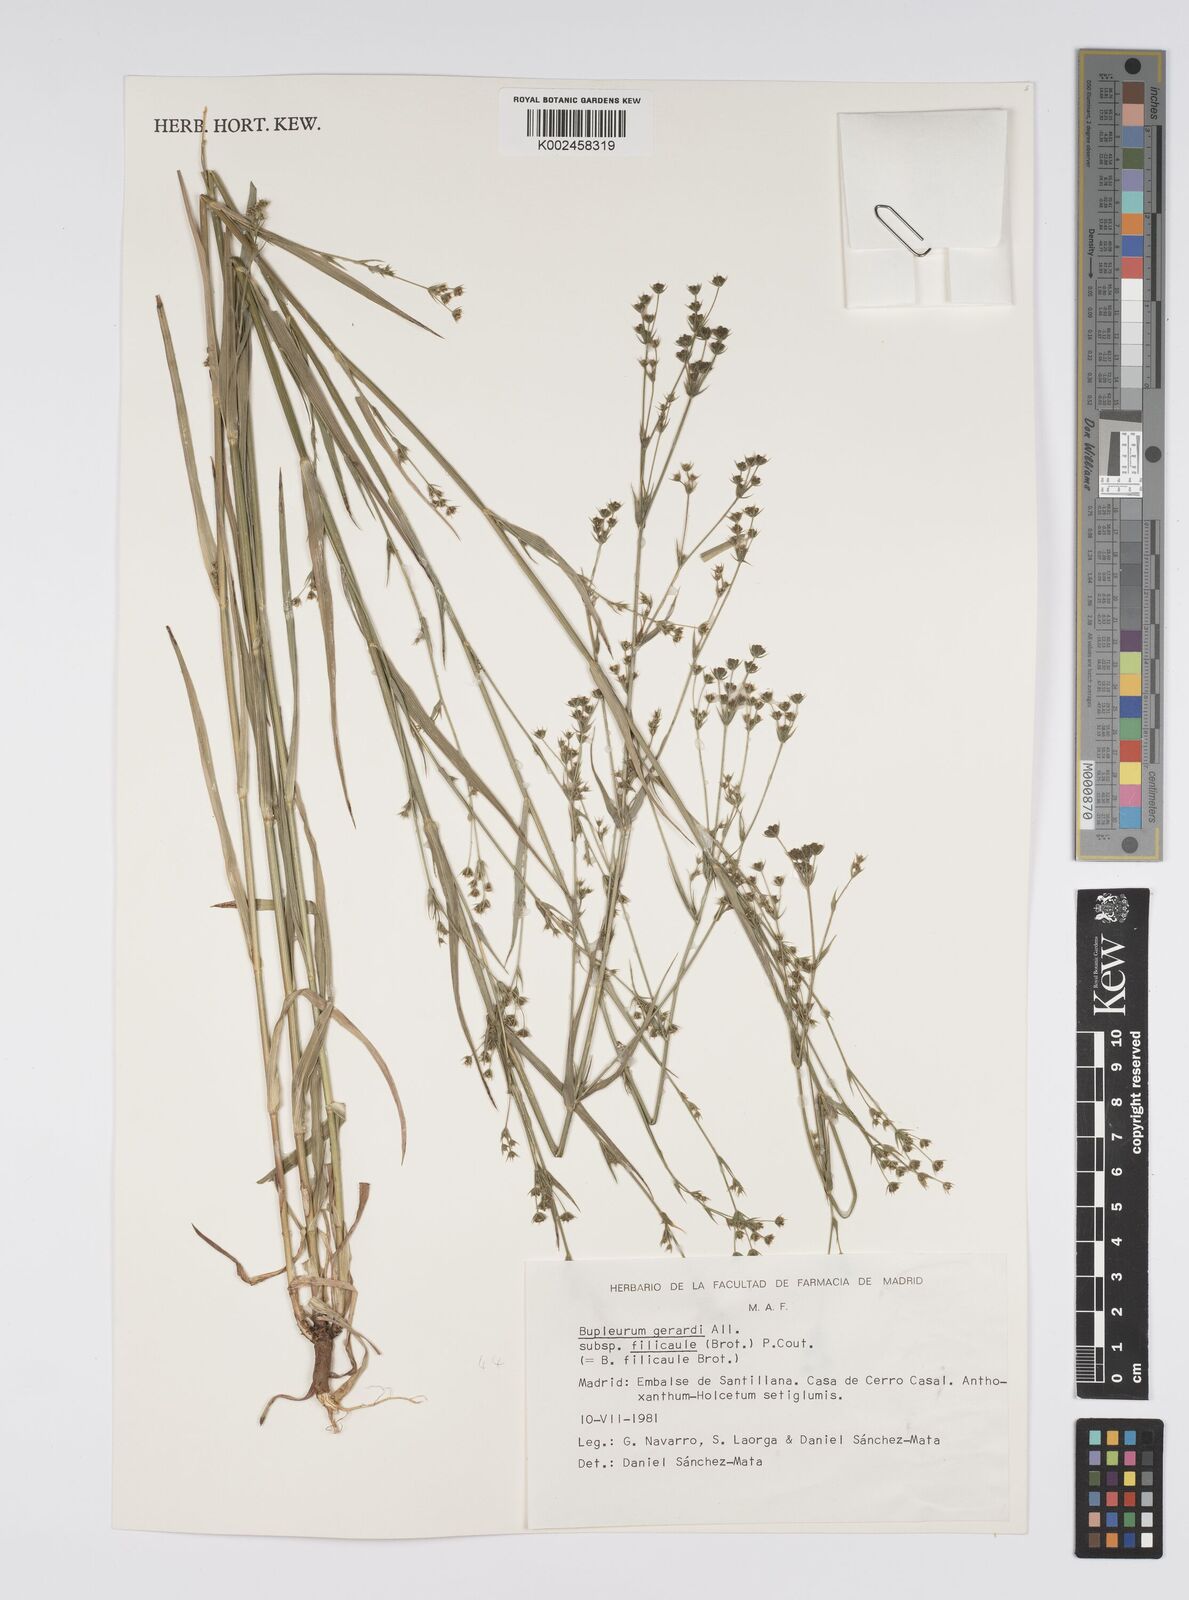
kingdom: Plantae
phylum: Tracheophyta
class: Magnoliopsida
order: Apiales
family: Apiaceae
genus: Bupleurum
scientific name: Bupleurum gerardi
